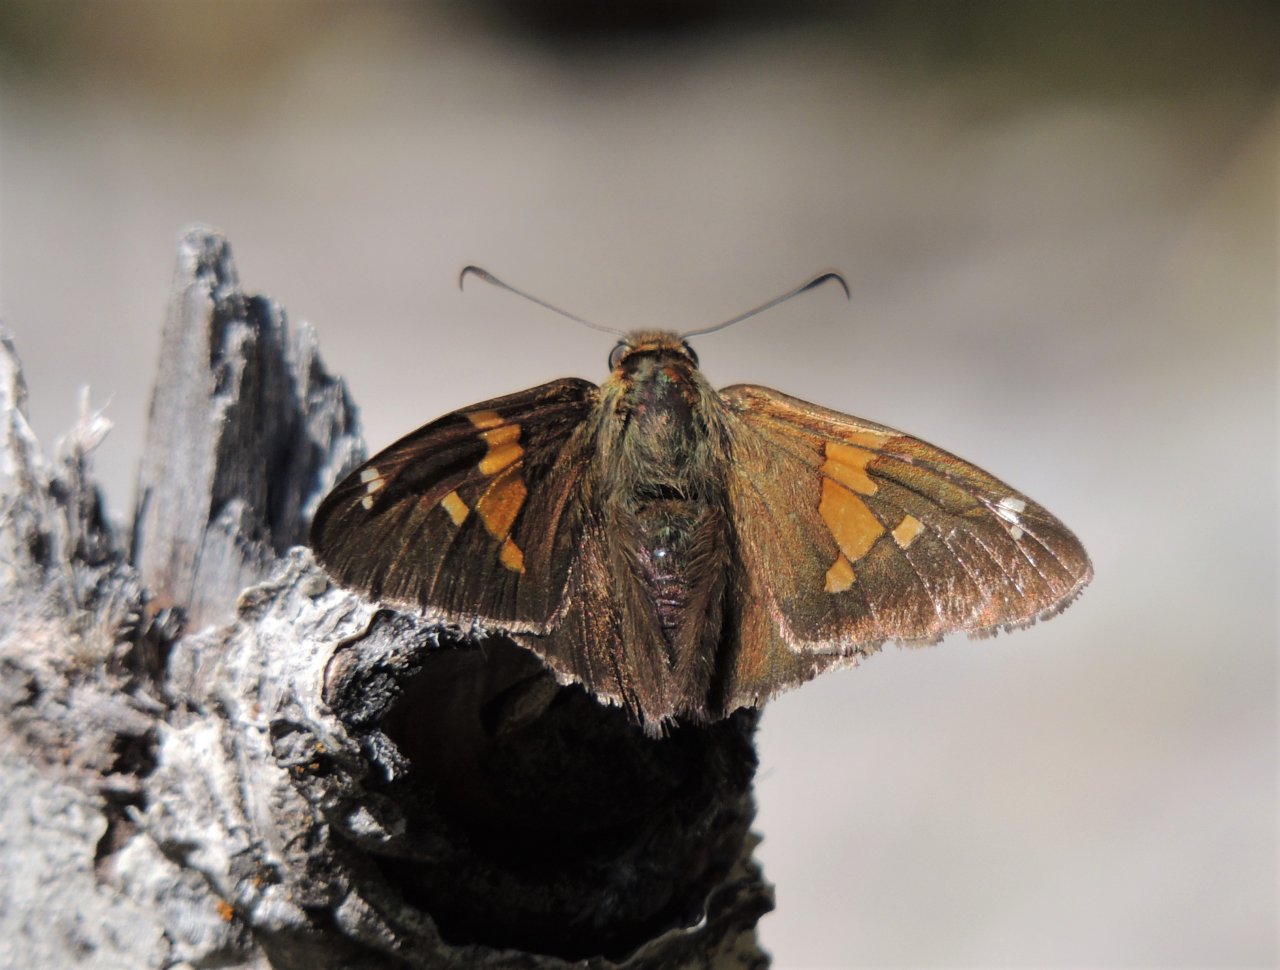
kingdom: Animalia
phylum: Arthropoda
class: Insecta
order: Lepidoptera
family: Hesperiidae
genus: Epargyreus
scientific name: Epargyreus clarus
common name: Silver-spotted Skipper
